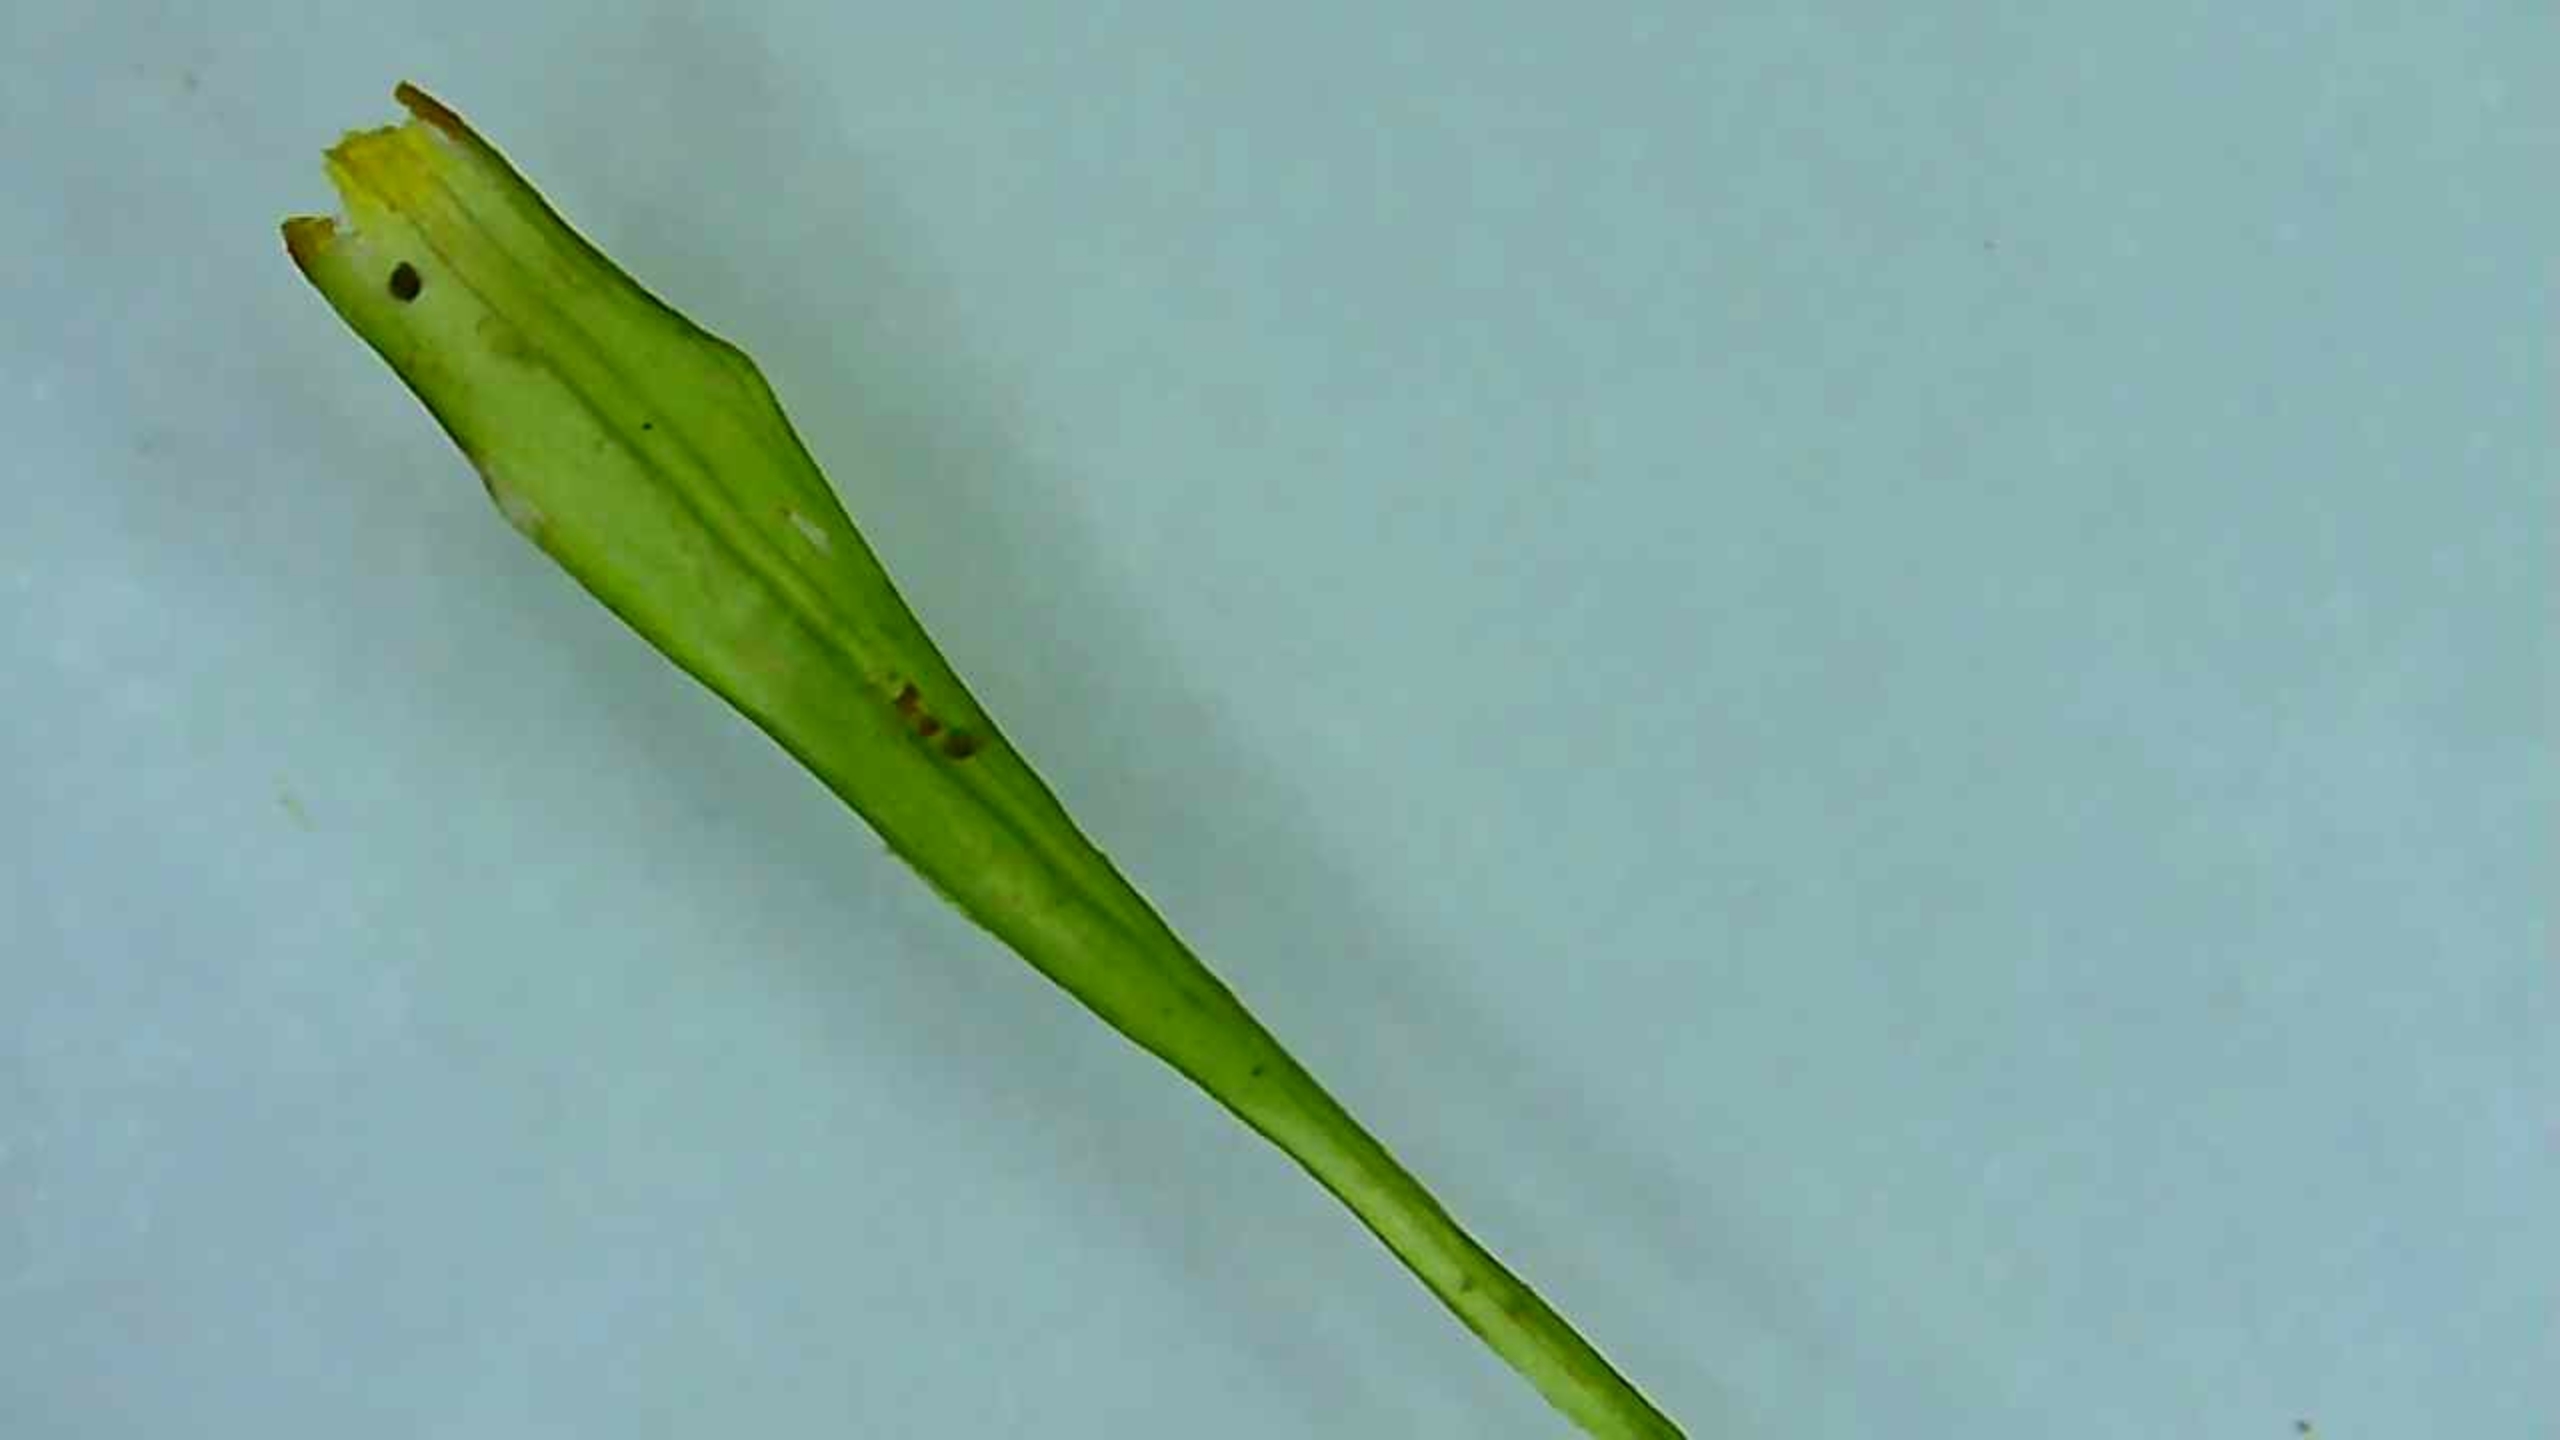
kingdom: Plantae
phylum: Bryophyta
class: Bryopsida
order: Dicranales
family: Dicranaceae
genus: Dicranum
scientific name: Dicranum scoparium
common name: Almindelig kløvtand
